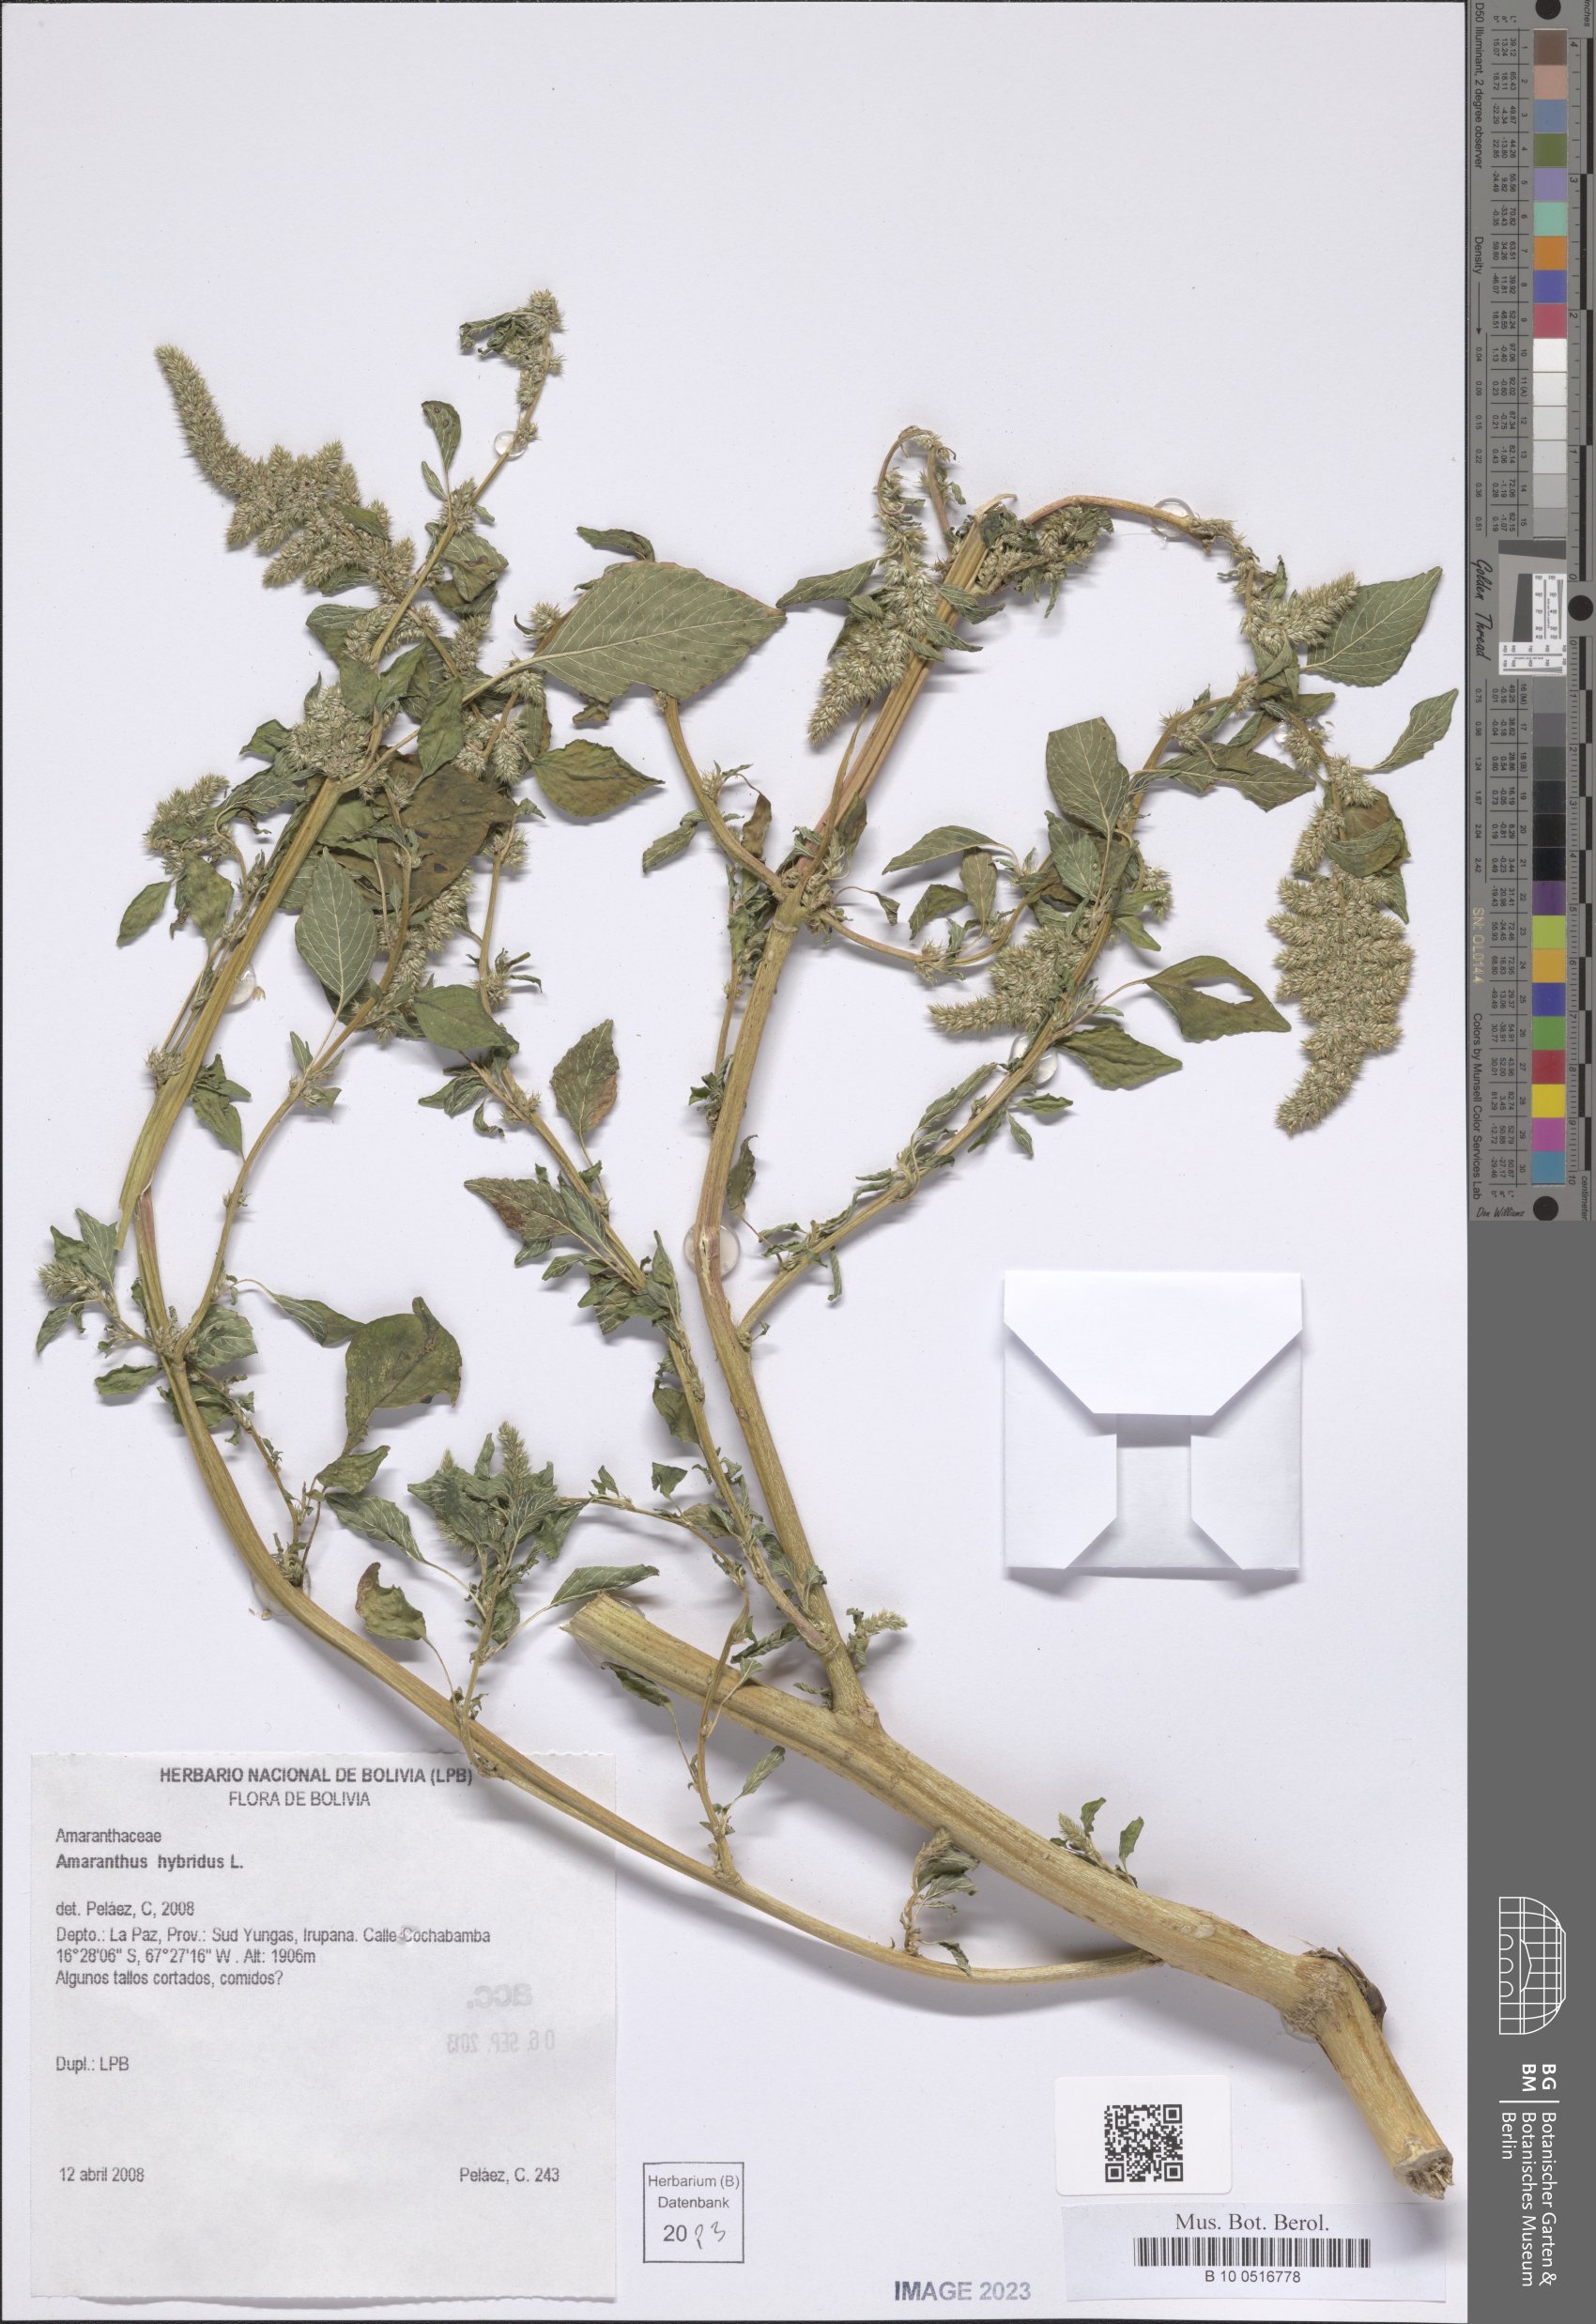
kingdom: Plantae
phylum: Tracheophyta
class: Magnoliopsida
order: Caryophyllales
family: Amaranthaceae
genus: Amaranthus
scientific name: Amaranthus hybridus
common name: Green amaranth
